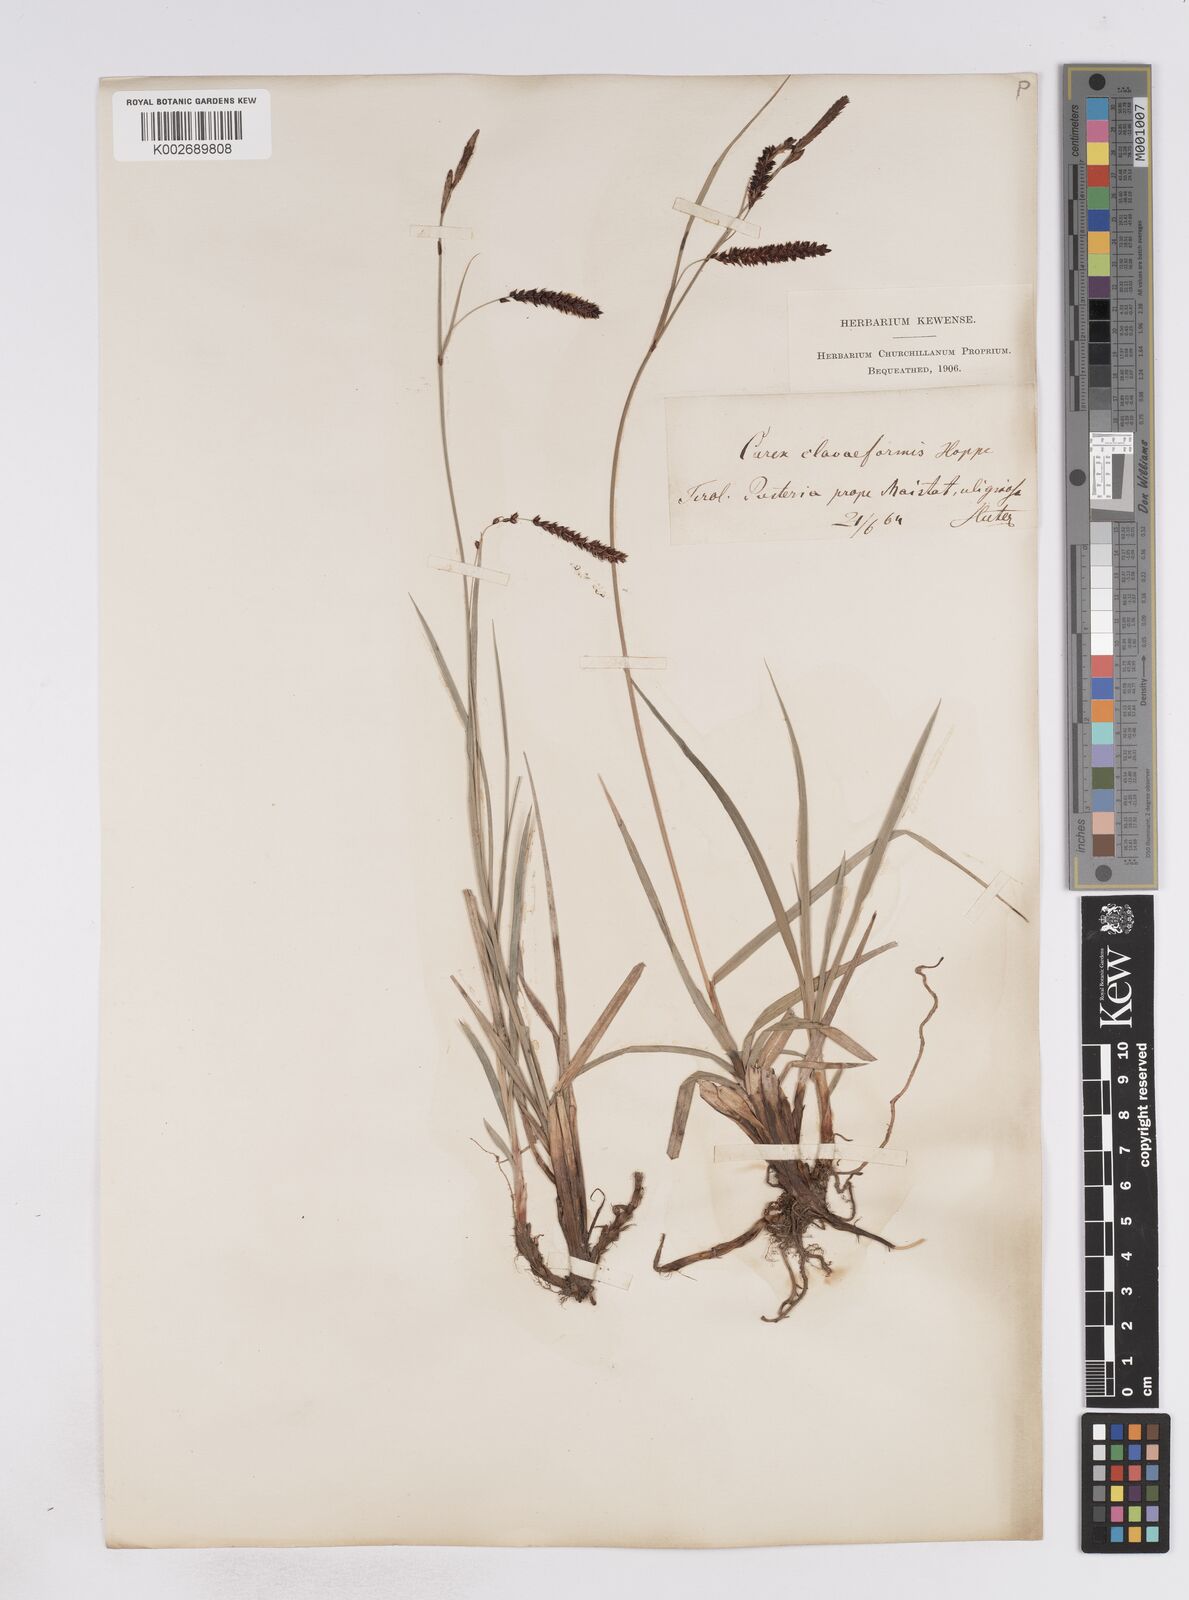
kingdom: Plantae
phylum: Tracheophyta
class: Liliopsida
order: Poales
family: Cyperaceae
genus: Carex
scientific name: Carex flacca
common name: Glaucous sedge
